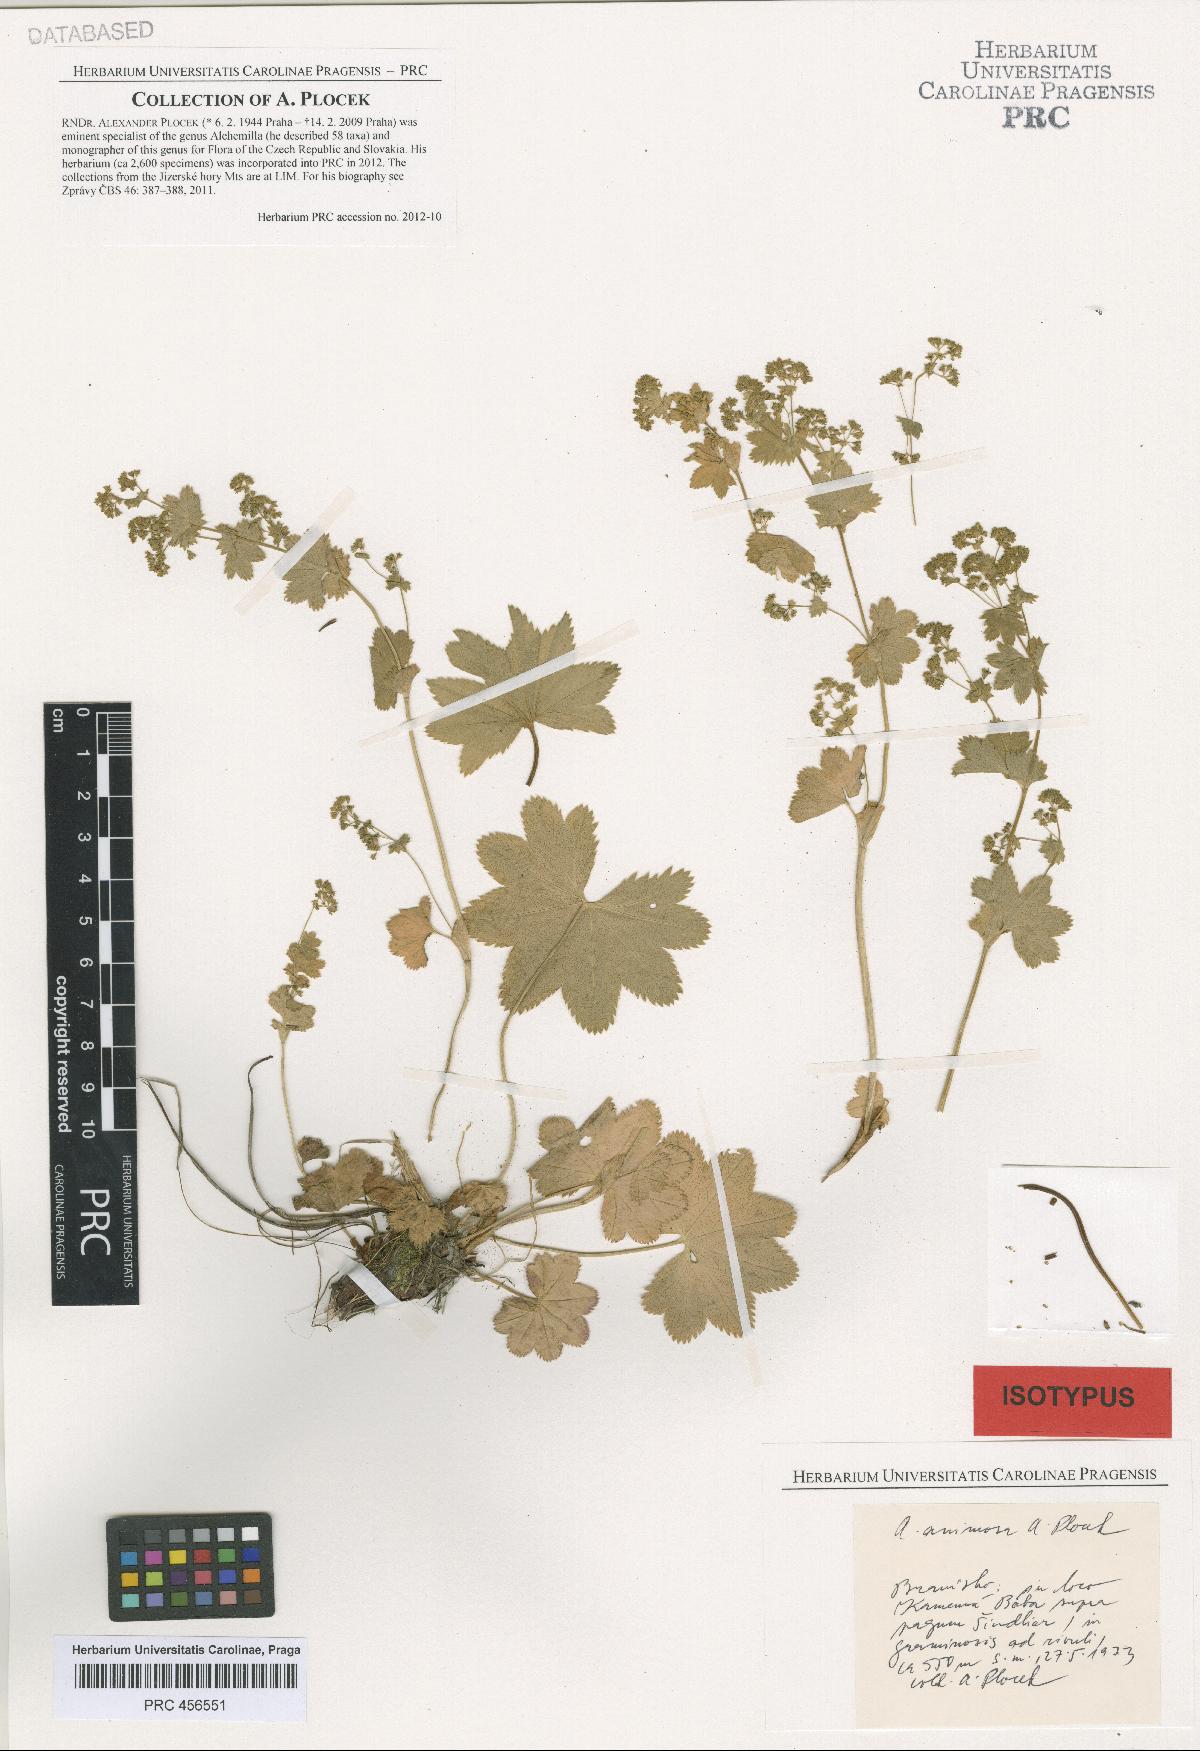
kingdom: Plantae
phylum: Tracheophyta
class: Magnoliopsida
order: Rosales
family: Rosaceae
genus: Alchemilla
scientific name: Alchemilla animosa
